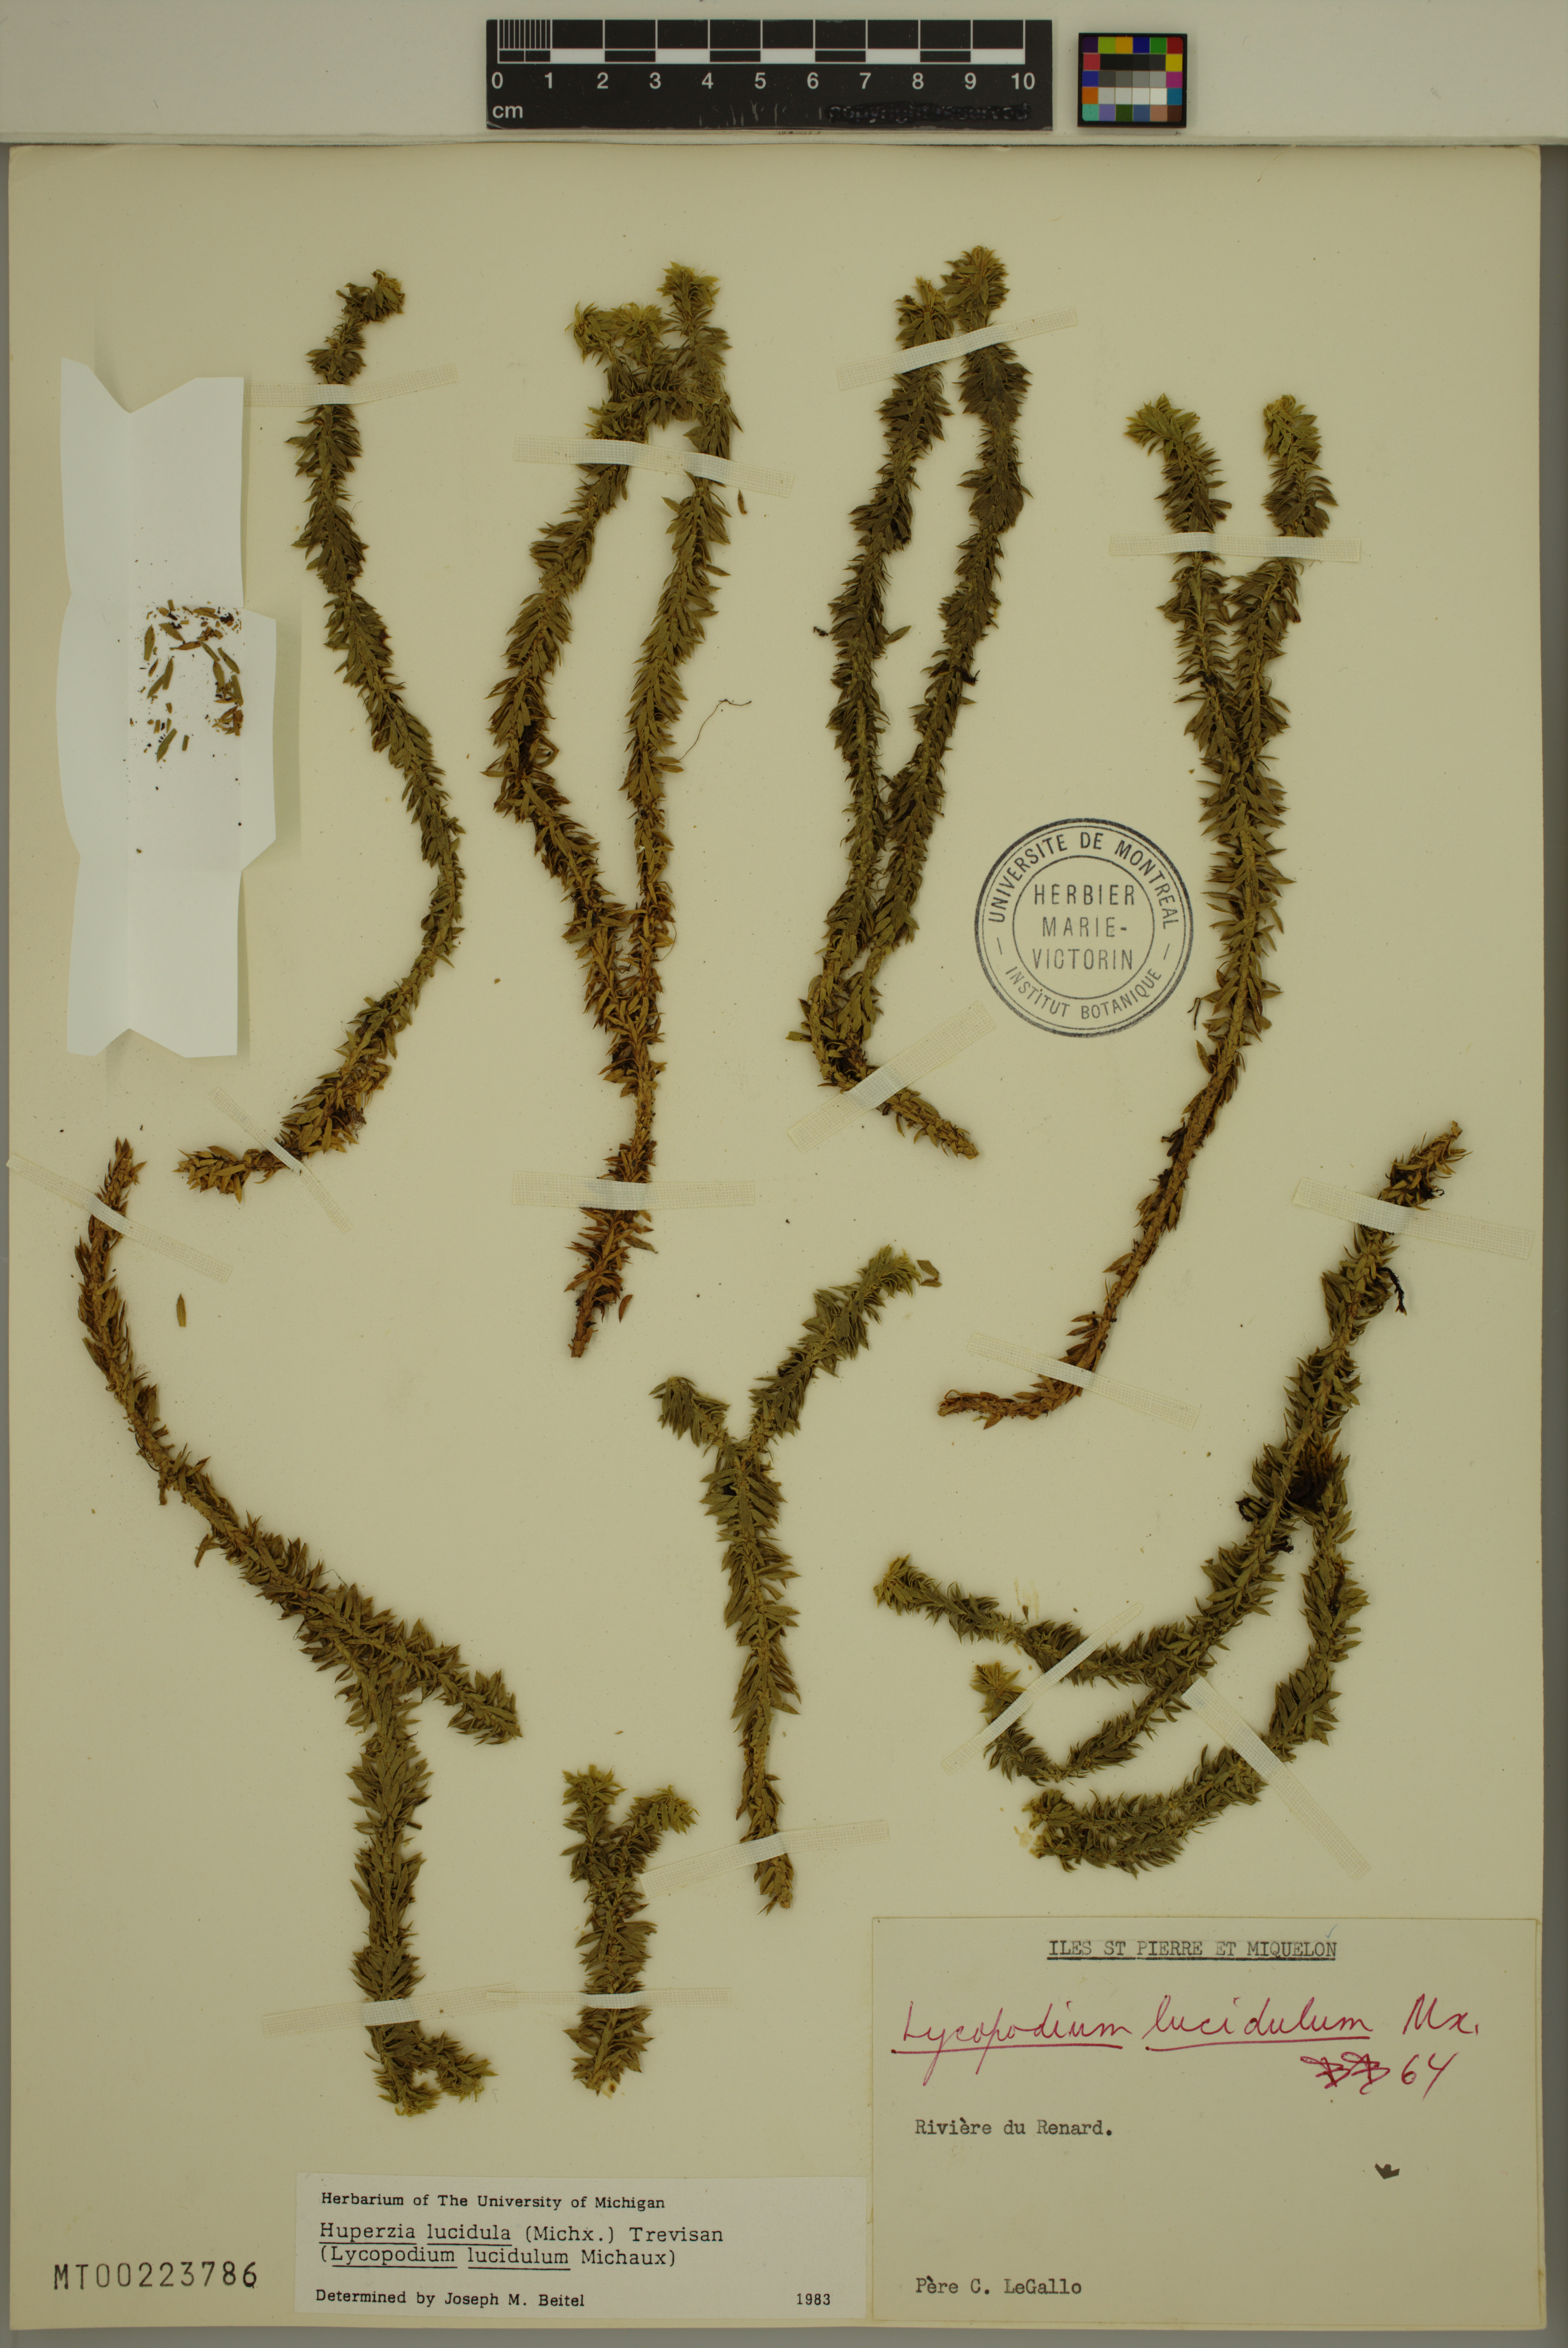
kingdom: Plantae
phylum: Tracheophyta
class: Lycopodiopsida
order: Lycopodiales
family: Lycopodiaceae
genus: Huperzia
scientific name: Huperzia lucidula
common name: Shining clubmoss
